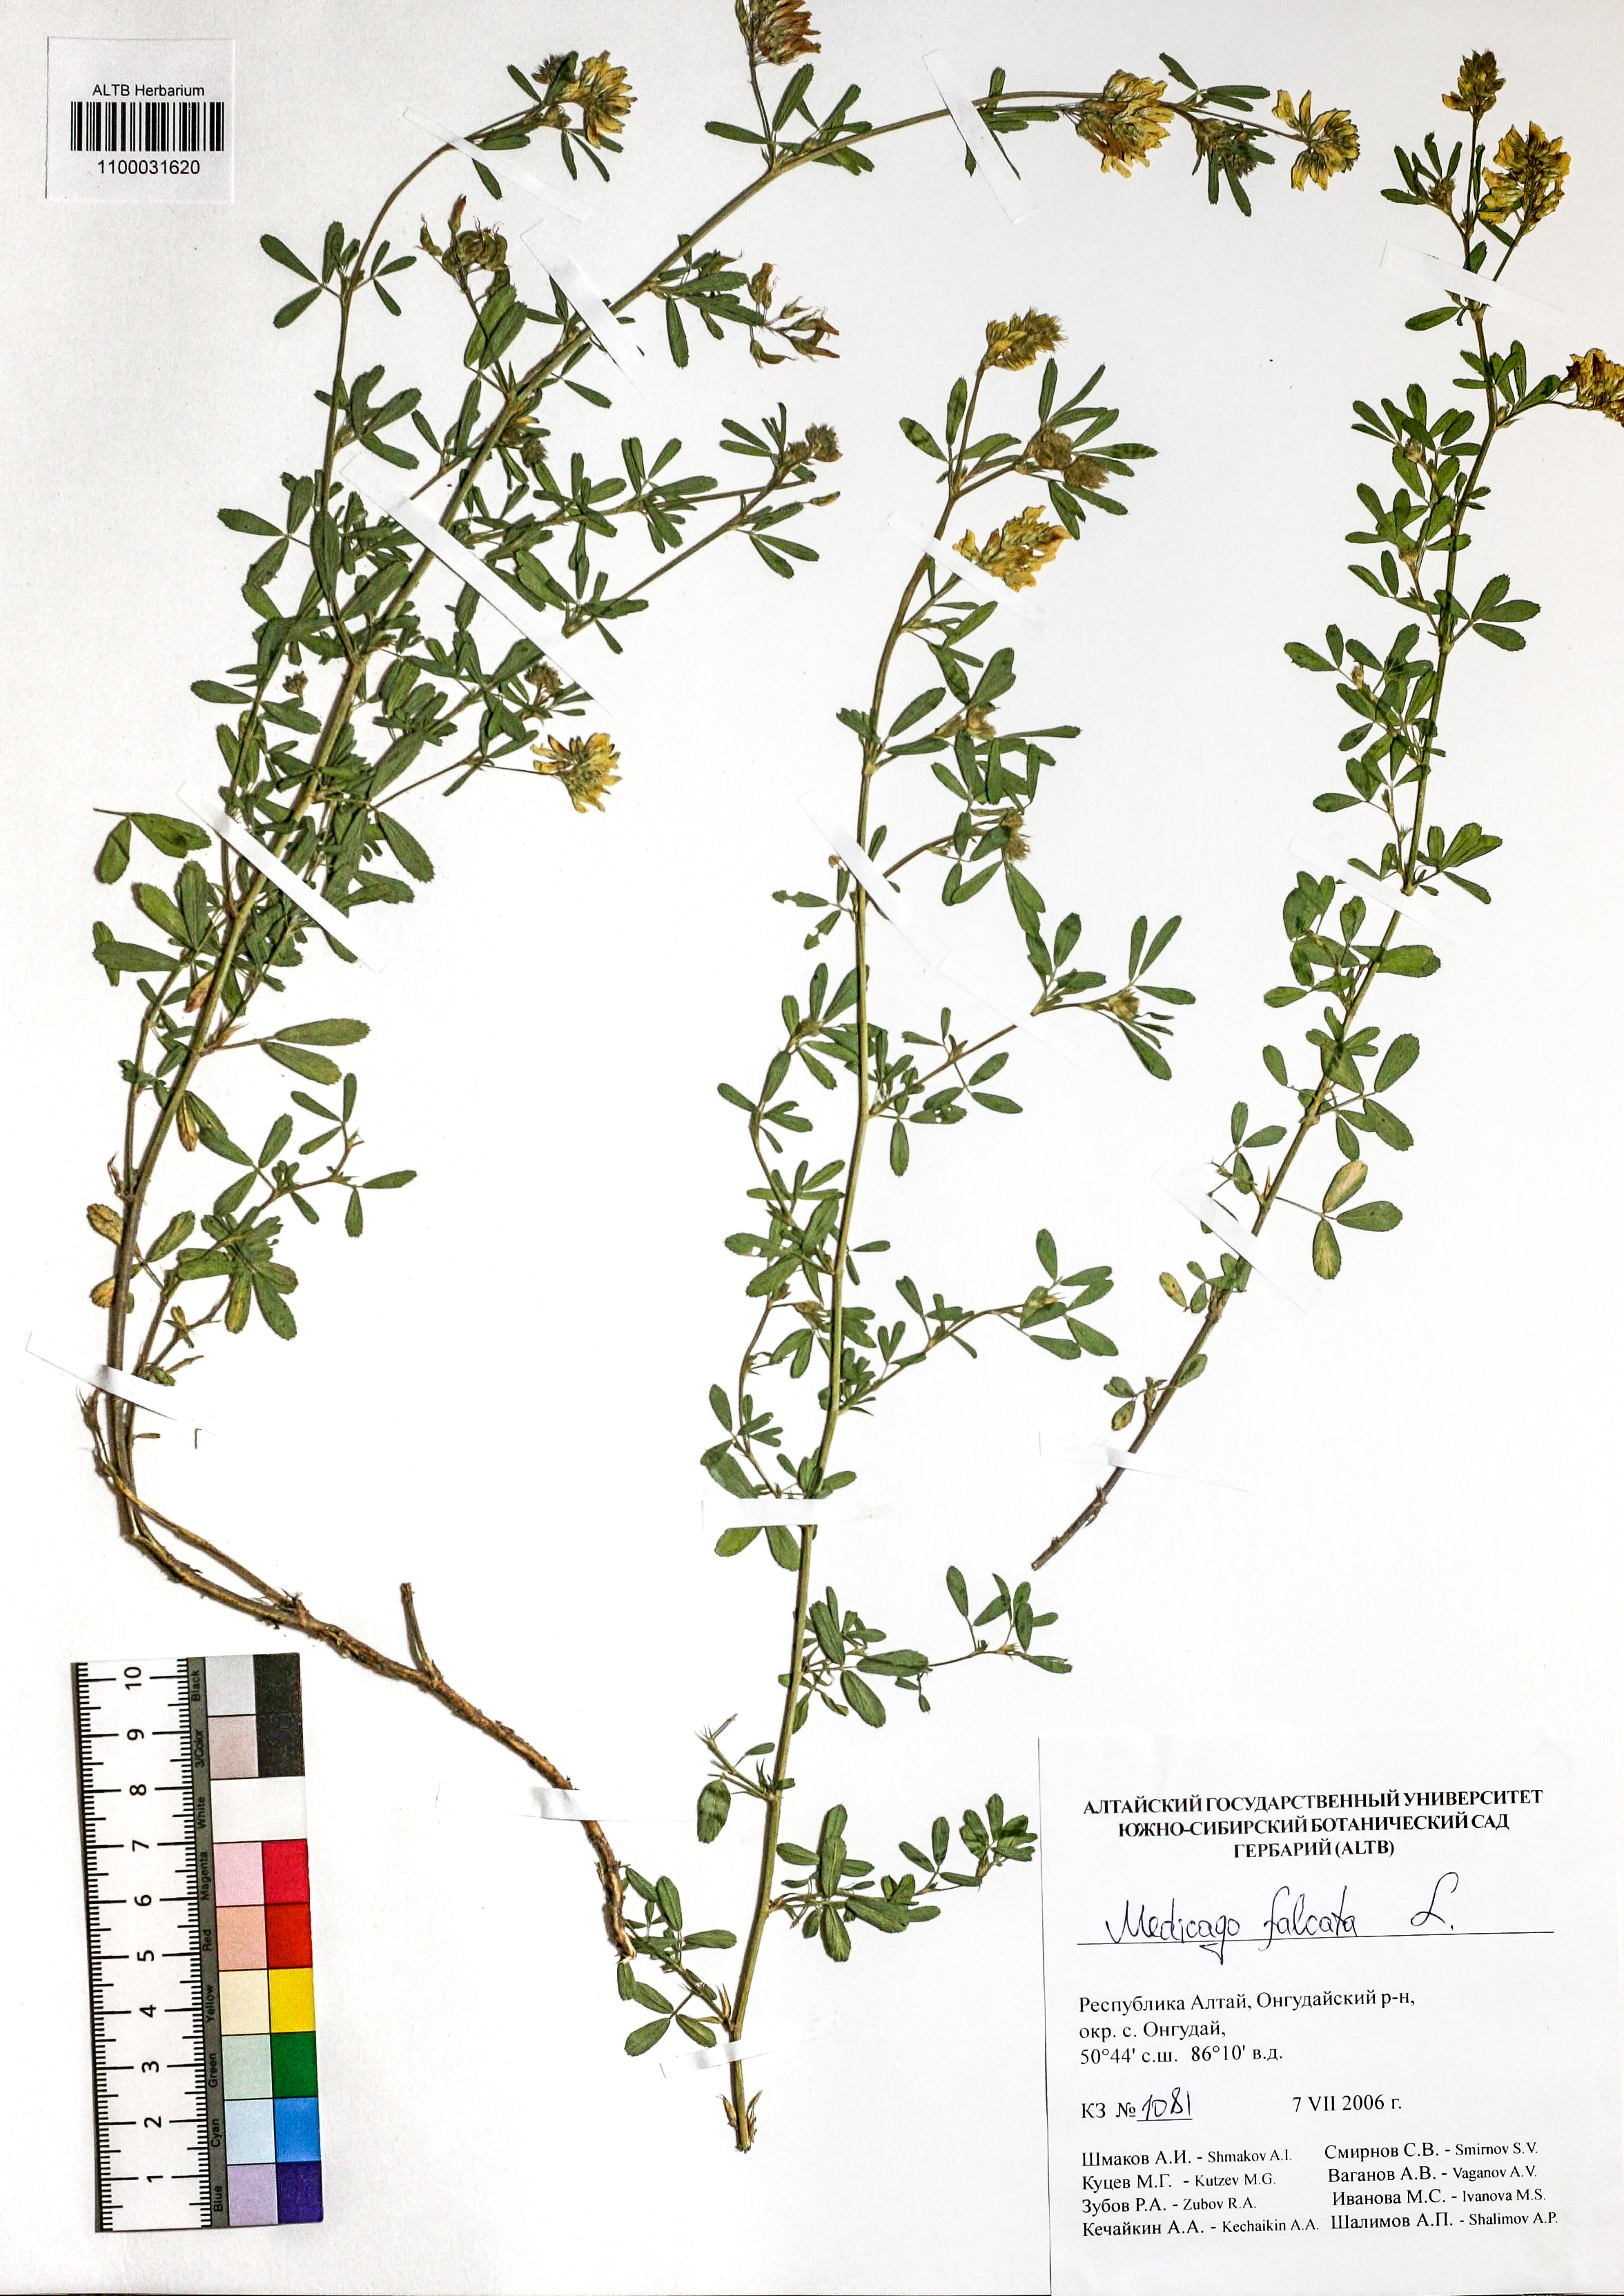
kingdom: Plantae
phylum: Tracheophyta
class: Magnoliopsida
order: Fabales
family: Fabaceae
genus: Medicago
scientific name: Medicago falcata
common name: Sickle medick
